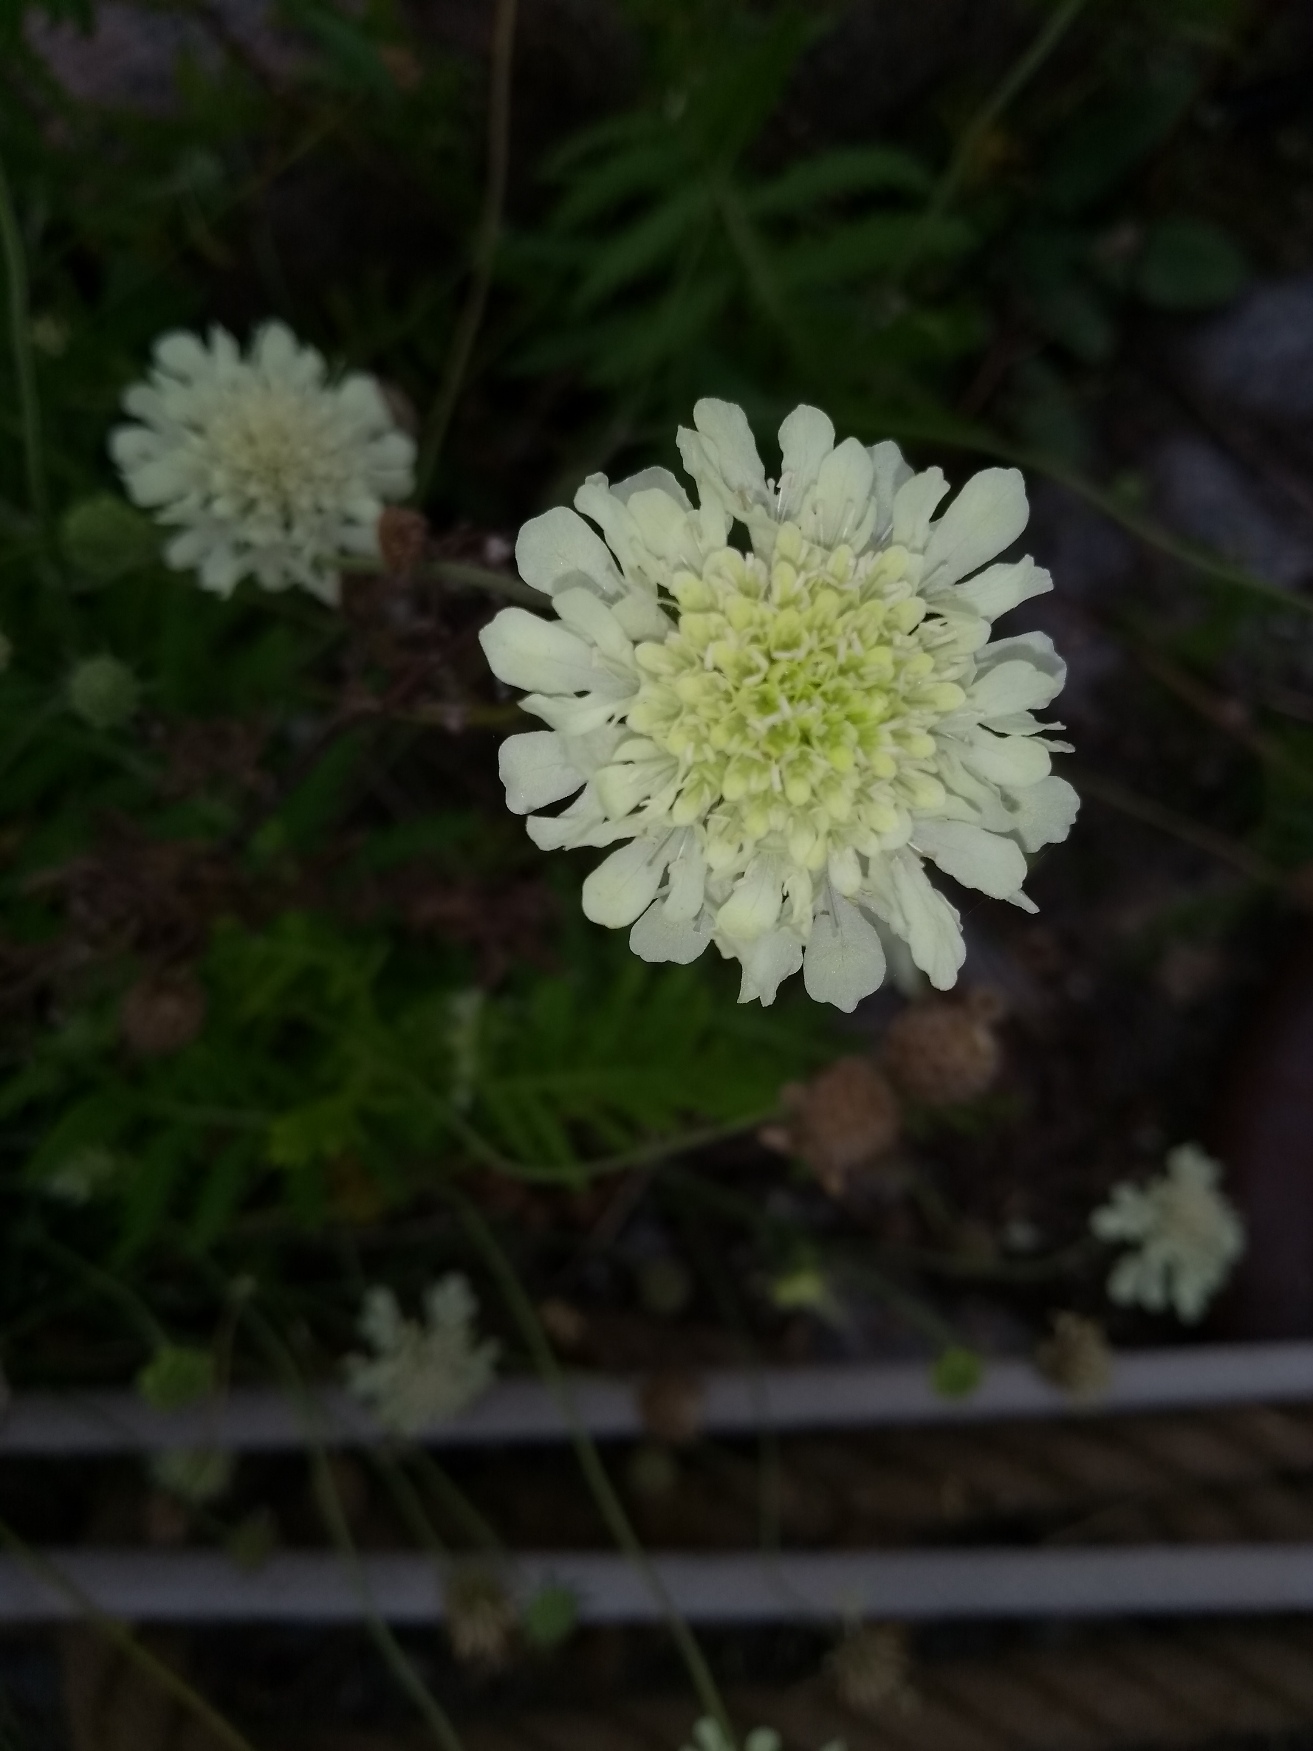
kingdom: Plantae
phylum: Tracheophyta
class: Magnoliopsida
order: Dipsacales
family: Caprifoliaceae
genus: Scabiosa
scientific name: Scabiosa ochroleuca
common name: Gul skabiose
